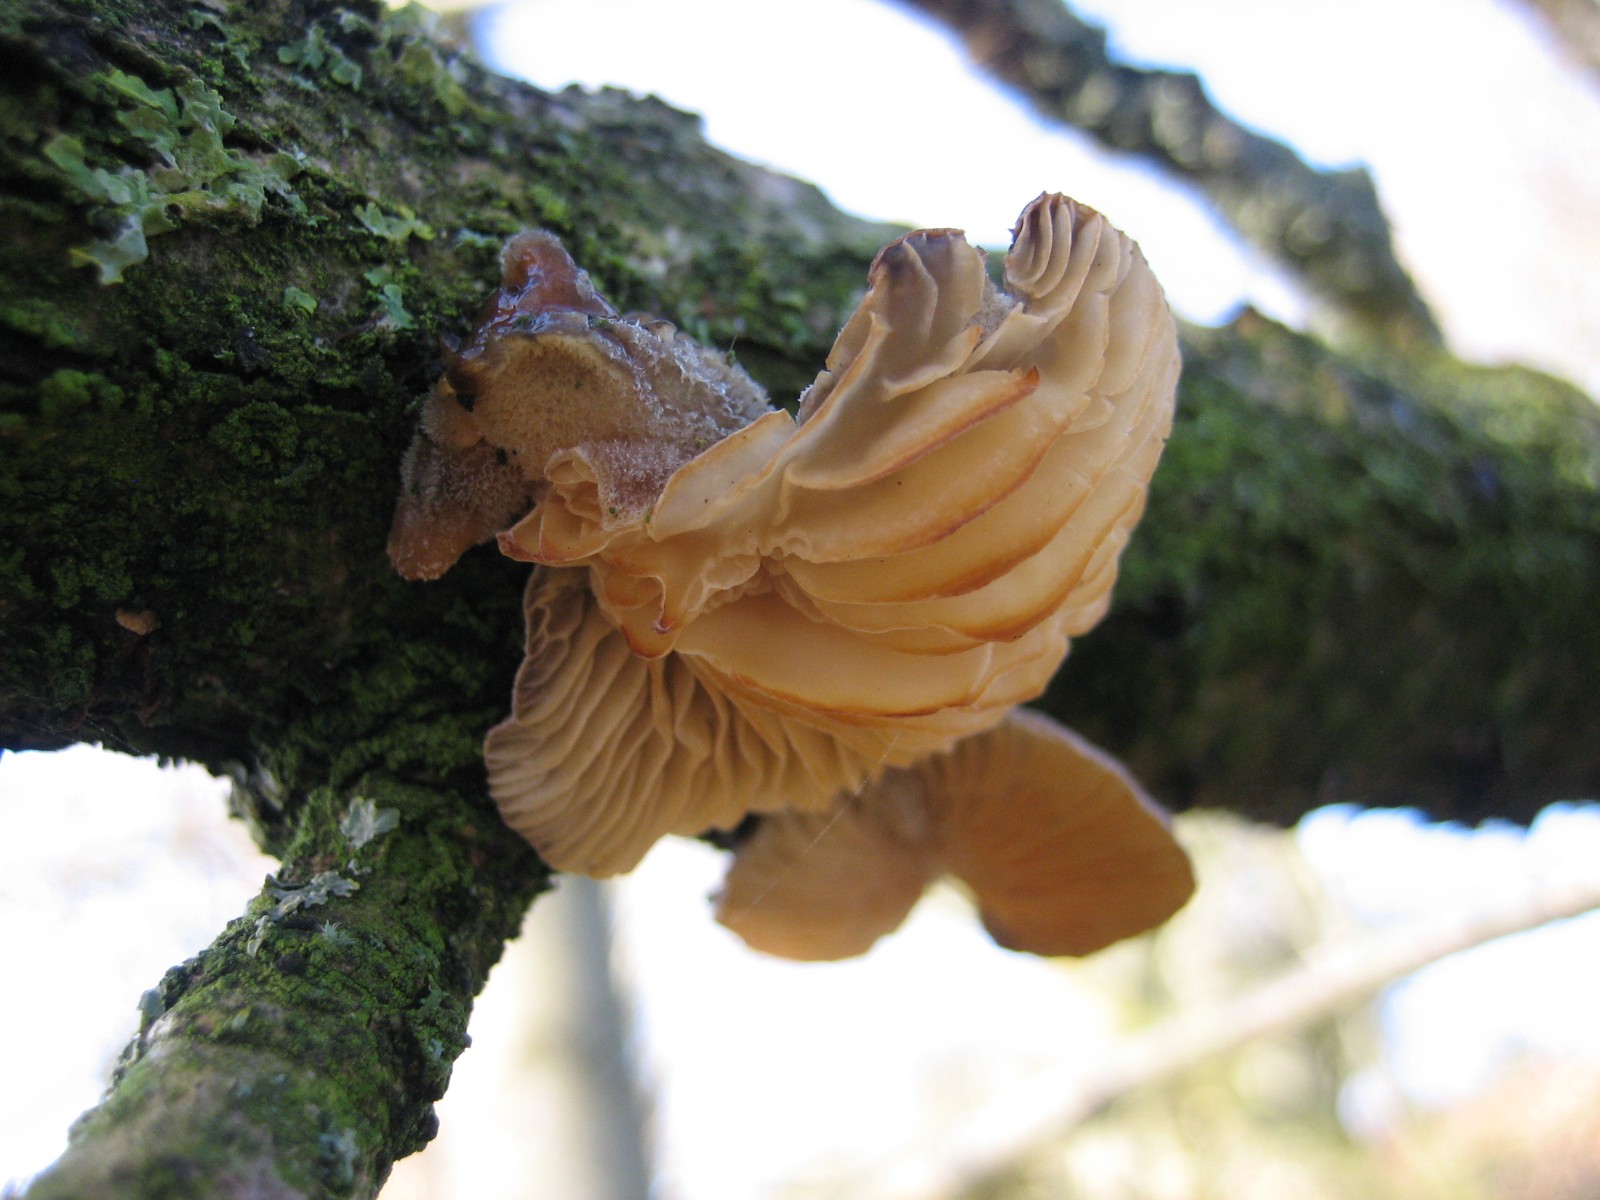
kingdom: Fungi
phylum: Basidiomycota
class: Agaricomycetes
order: Agaricales
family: Pleurotaceae
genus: Hohenbuehelia
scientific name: Hohenbuehelia
